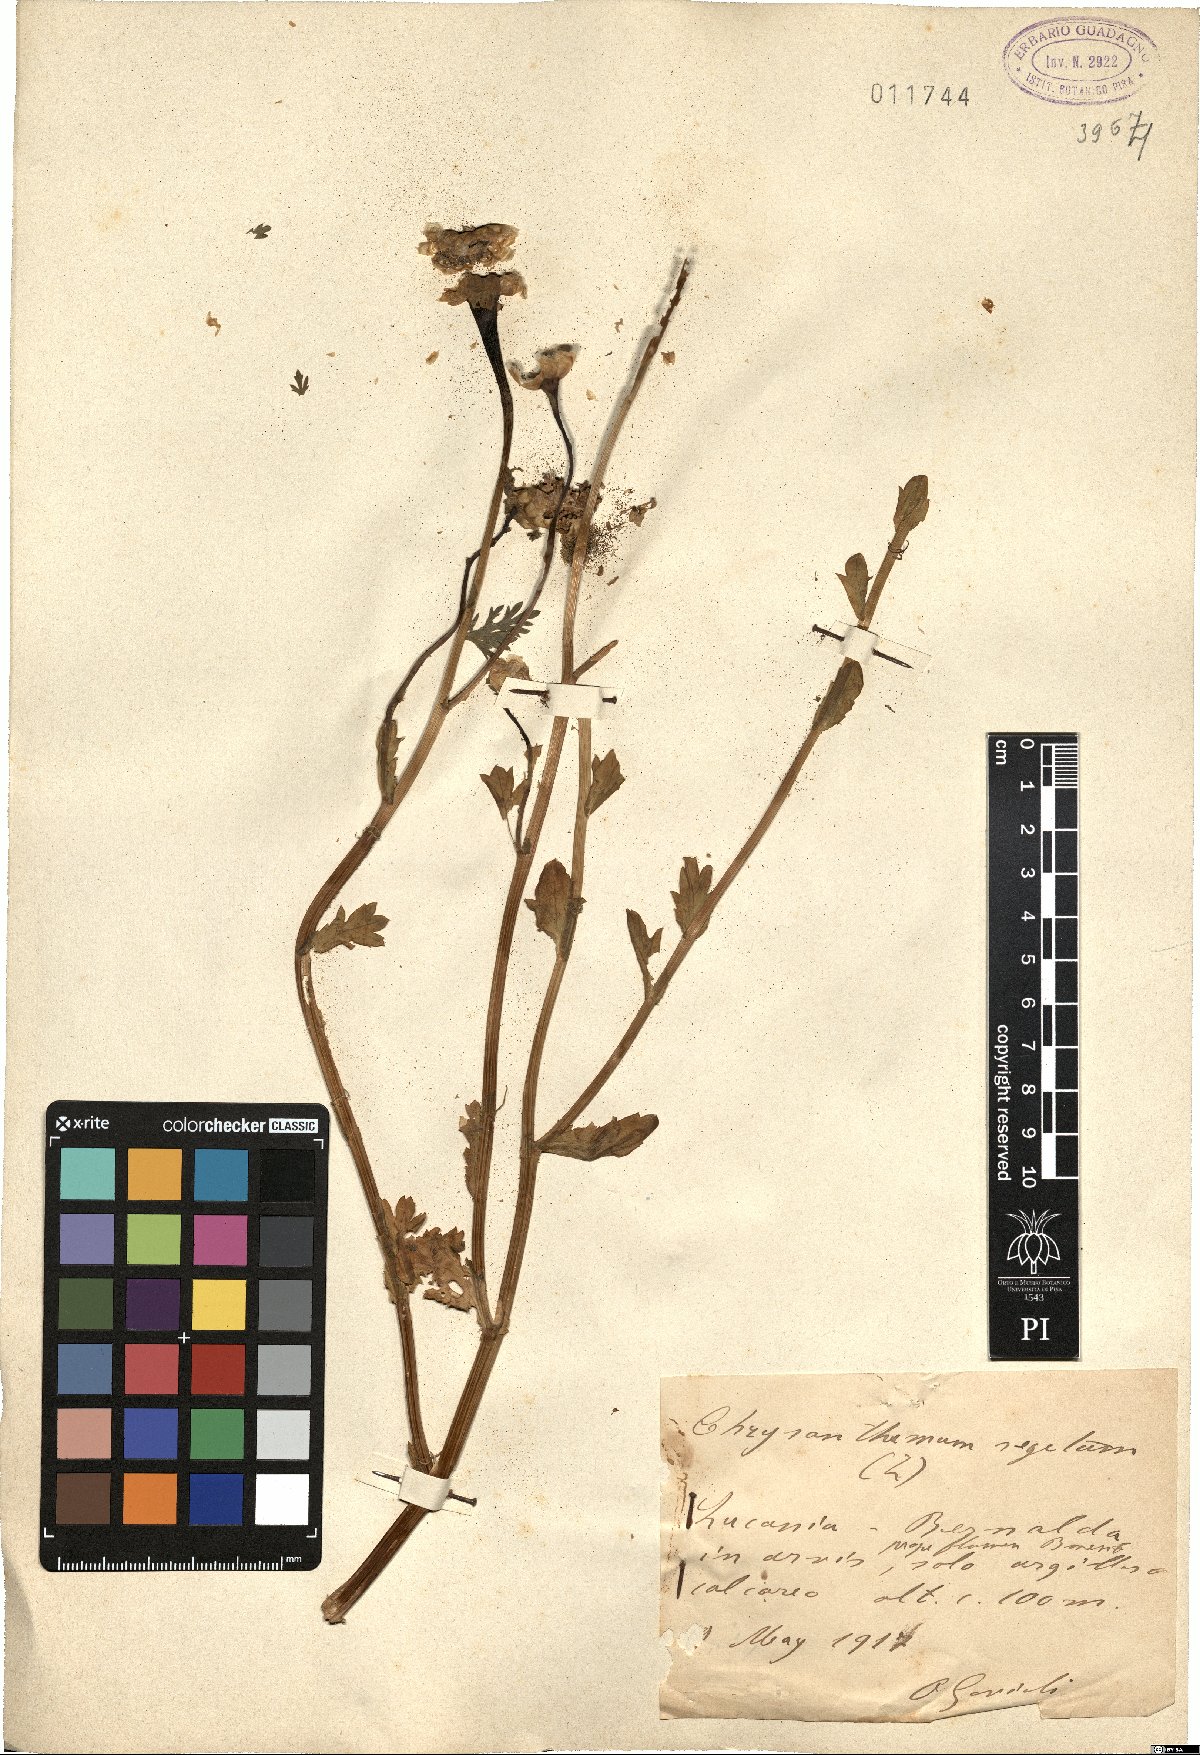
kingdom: Plantae
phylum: Tracheophyta
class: Magnoliopsida
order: Asterales
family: Asteraceae
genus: Glebionis
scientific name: Glebionis segetum
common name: Corndaisy
